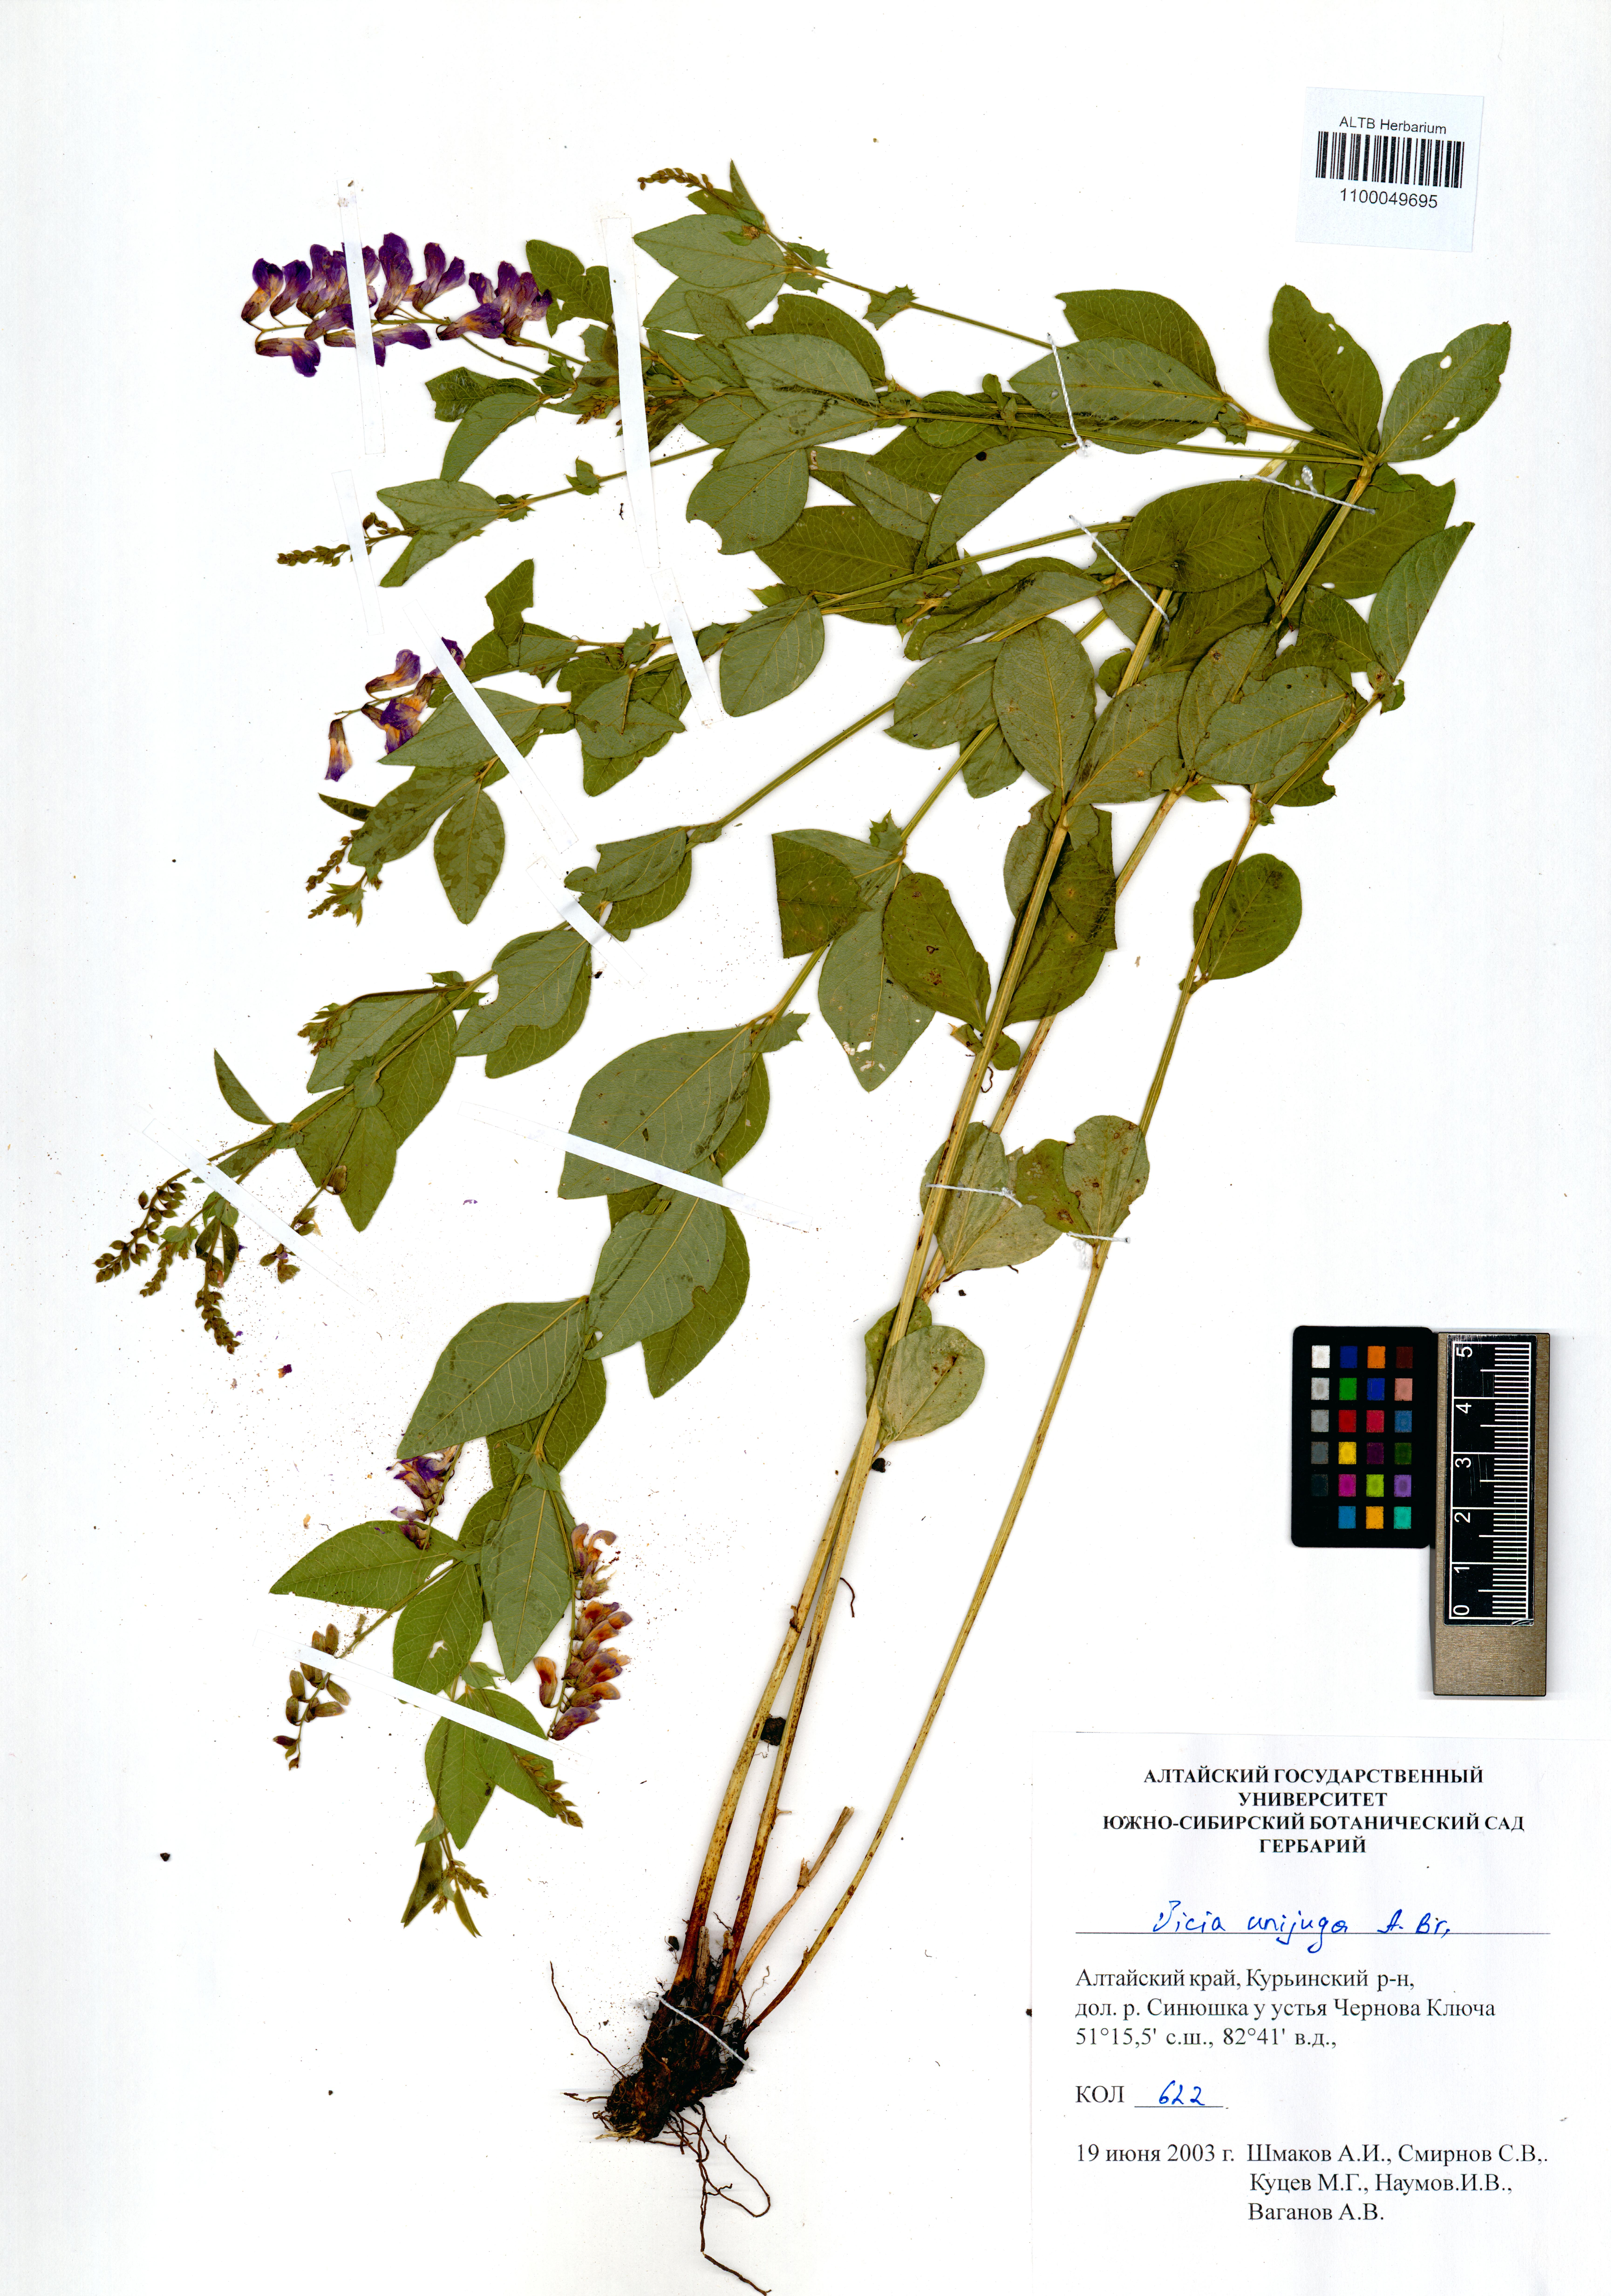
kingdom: Plantae
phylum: Tracheophyta
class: Magnoliopsida
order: Fabales
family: Fabaceae
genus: Vicia
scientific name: Vicia unijuga
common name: Two-leaf vetch
